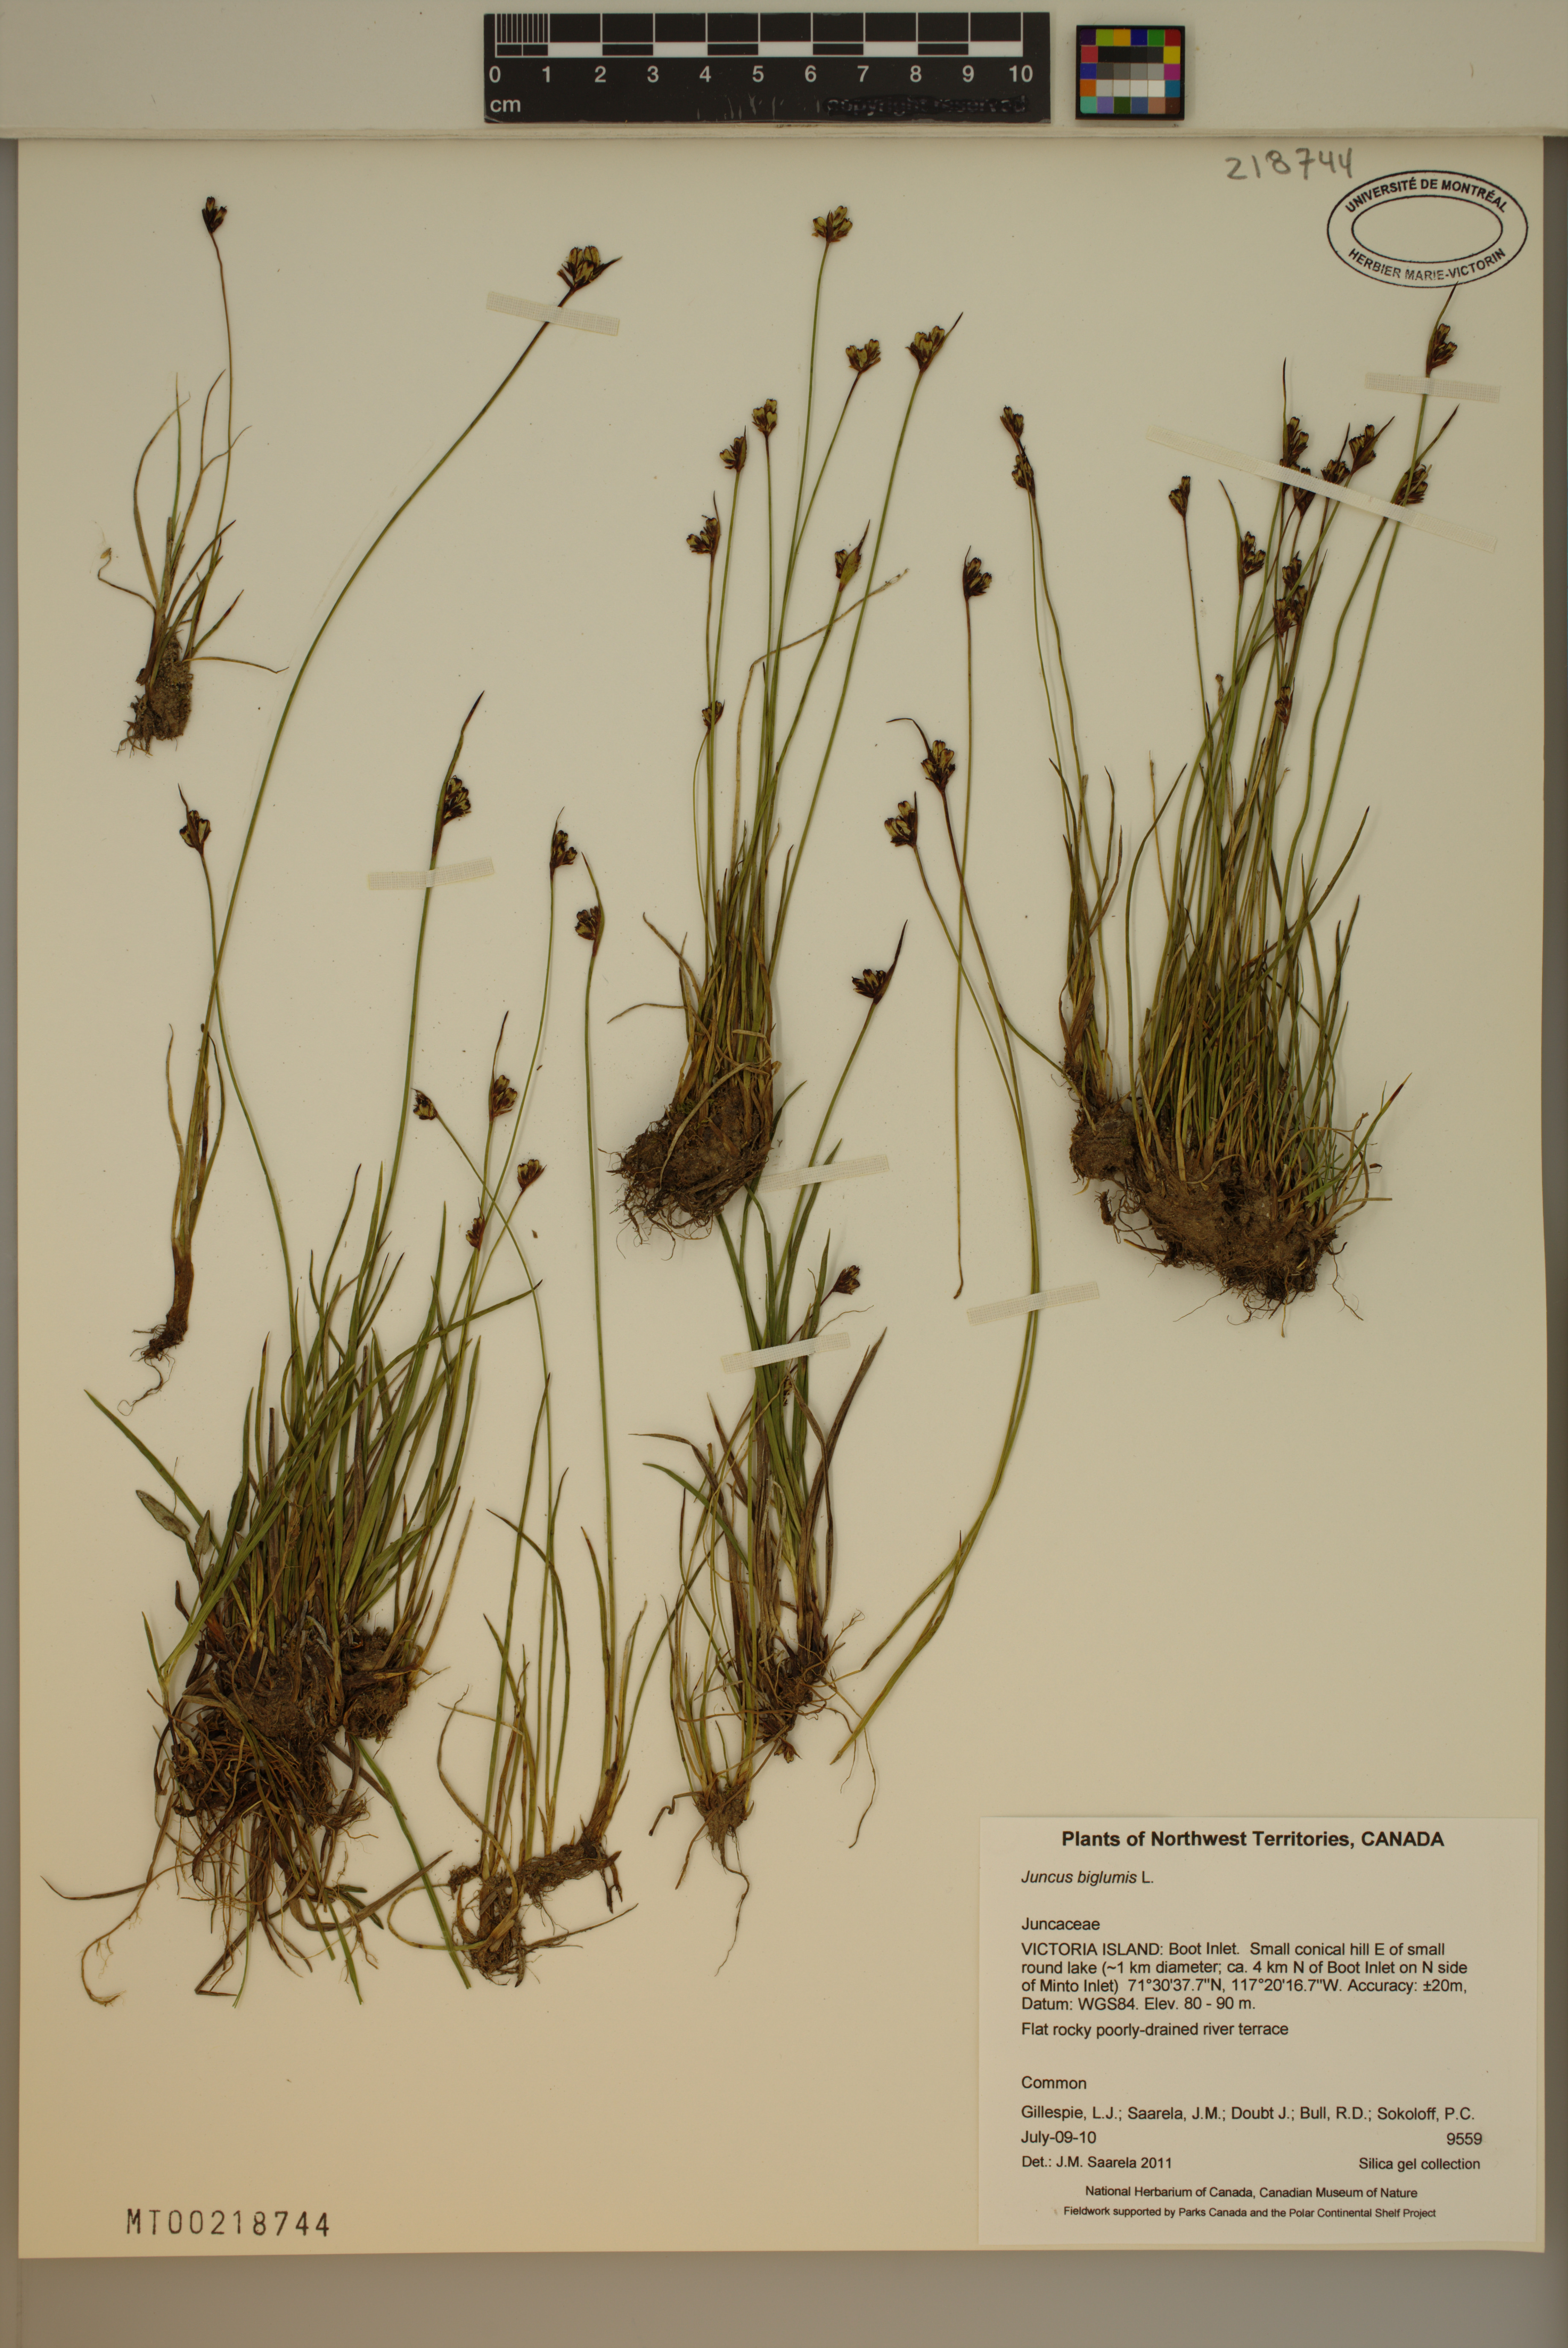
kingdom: Plantae
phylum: Tracheophyta
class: Liliopsida
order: Poales
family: Juncaceae
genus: Juncus
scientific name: Juncus biglumis
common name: Two-flowered rush
